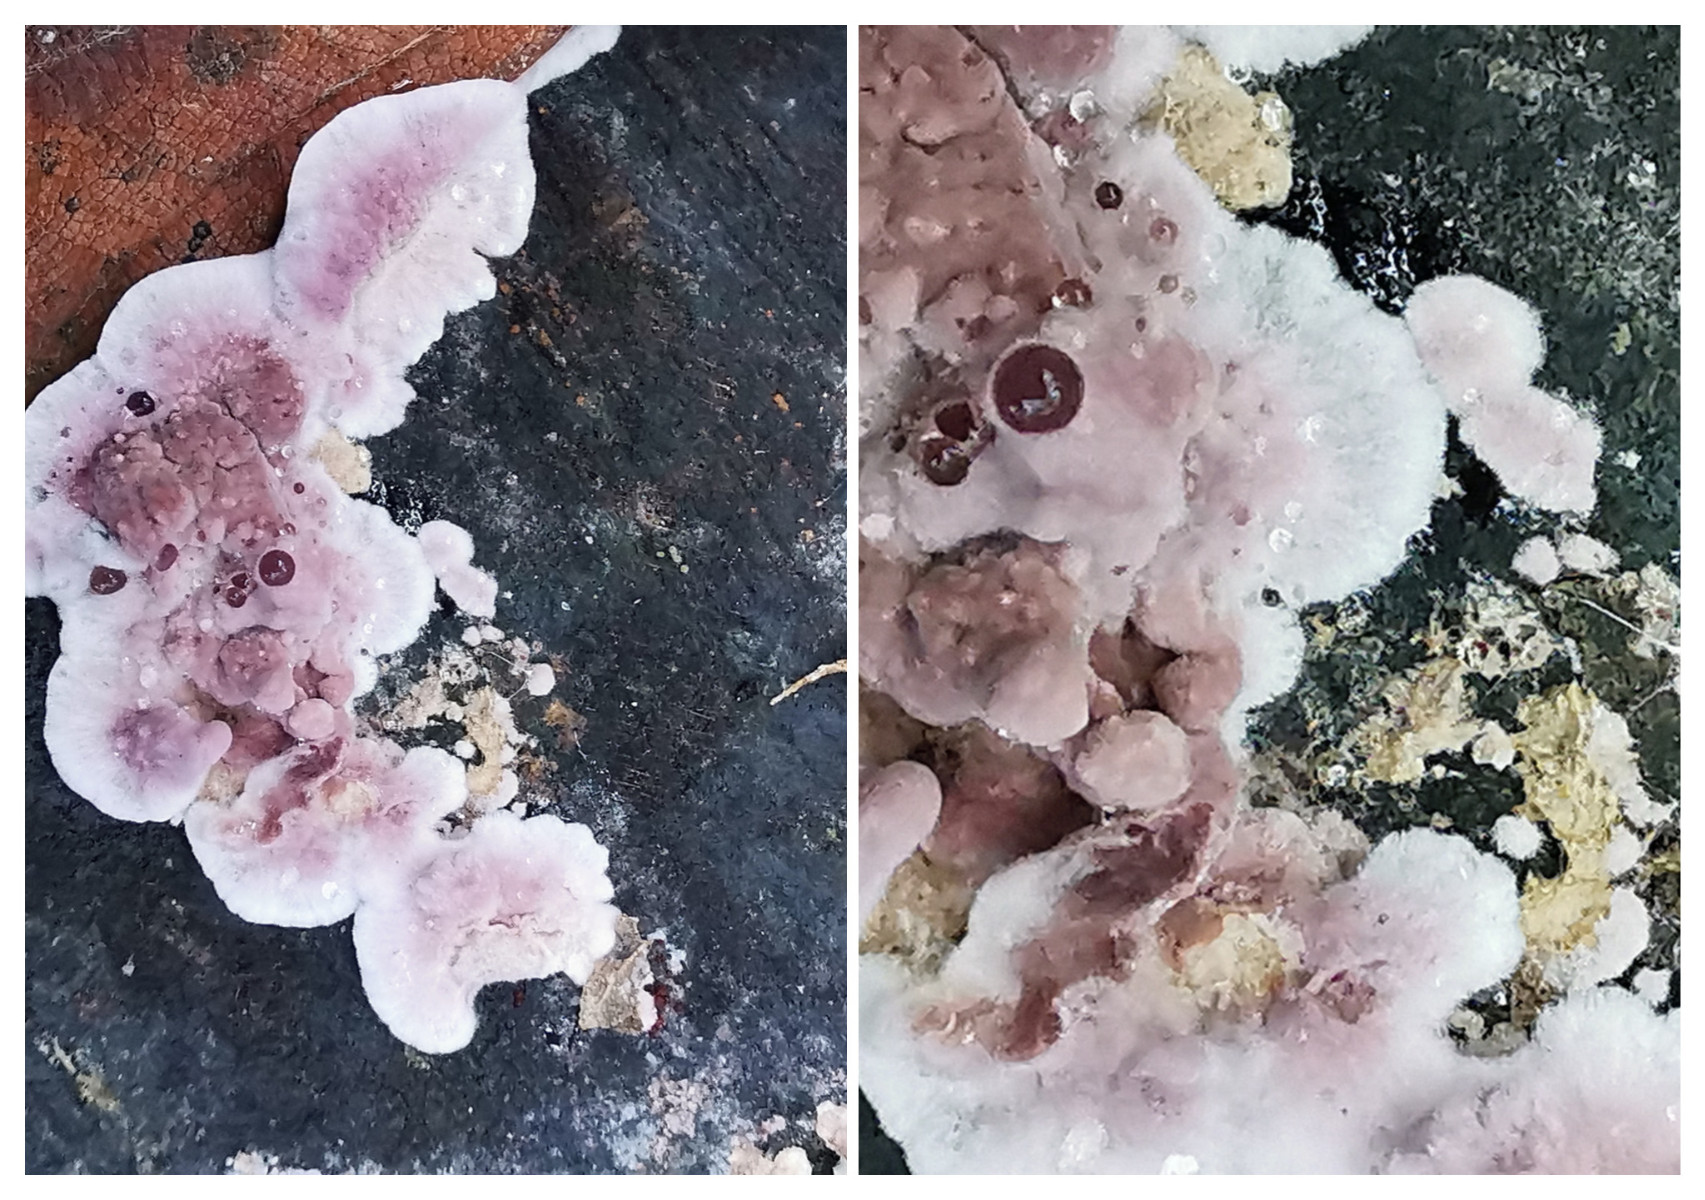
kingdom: Fungi
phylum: Basidiomycota
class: Agaricomycetes
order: Agaricales
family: Cyphellaceae
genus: Chondrostereum
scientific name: Chondrostereum purpureum
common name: purpurlædersvamp
